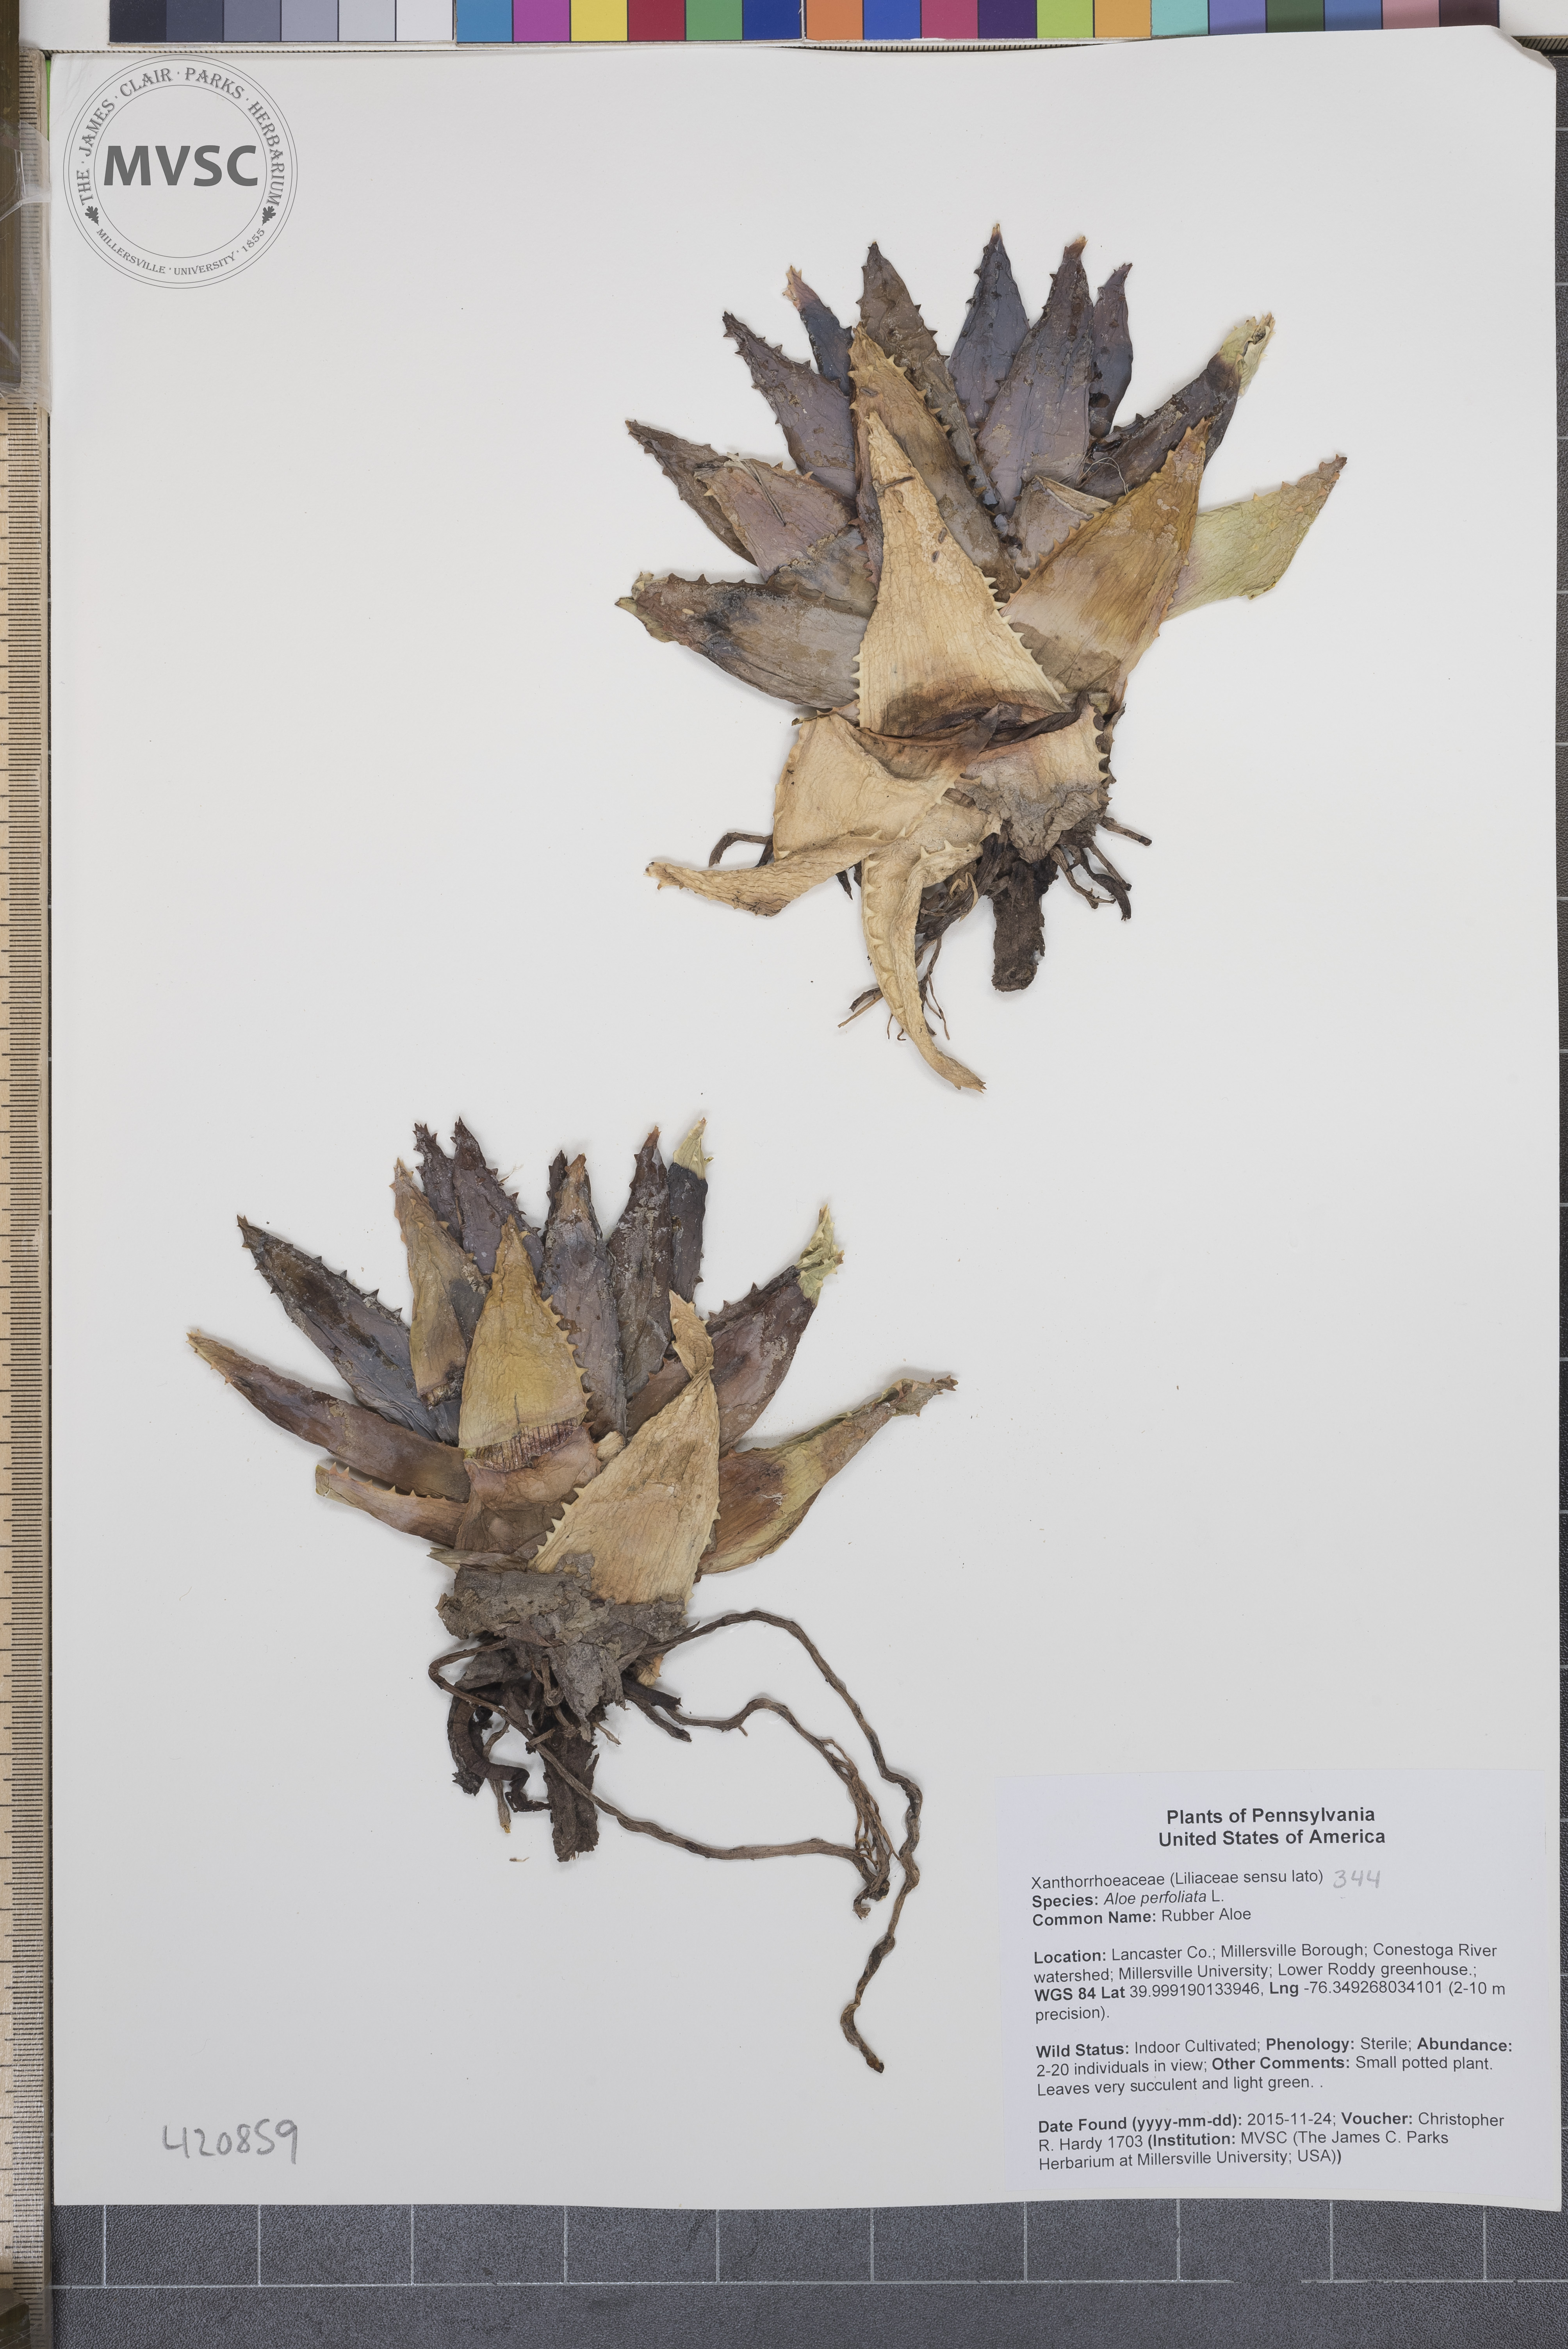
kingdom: Plantae
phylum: Tracheophyta
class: Liliopsida
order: Asparagales
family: Asphodelaceae
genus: Aloe
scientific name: Aloe perfoliata
